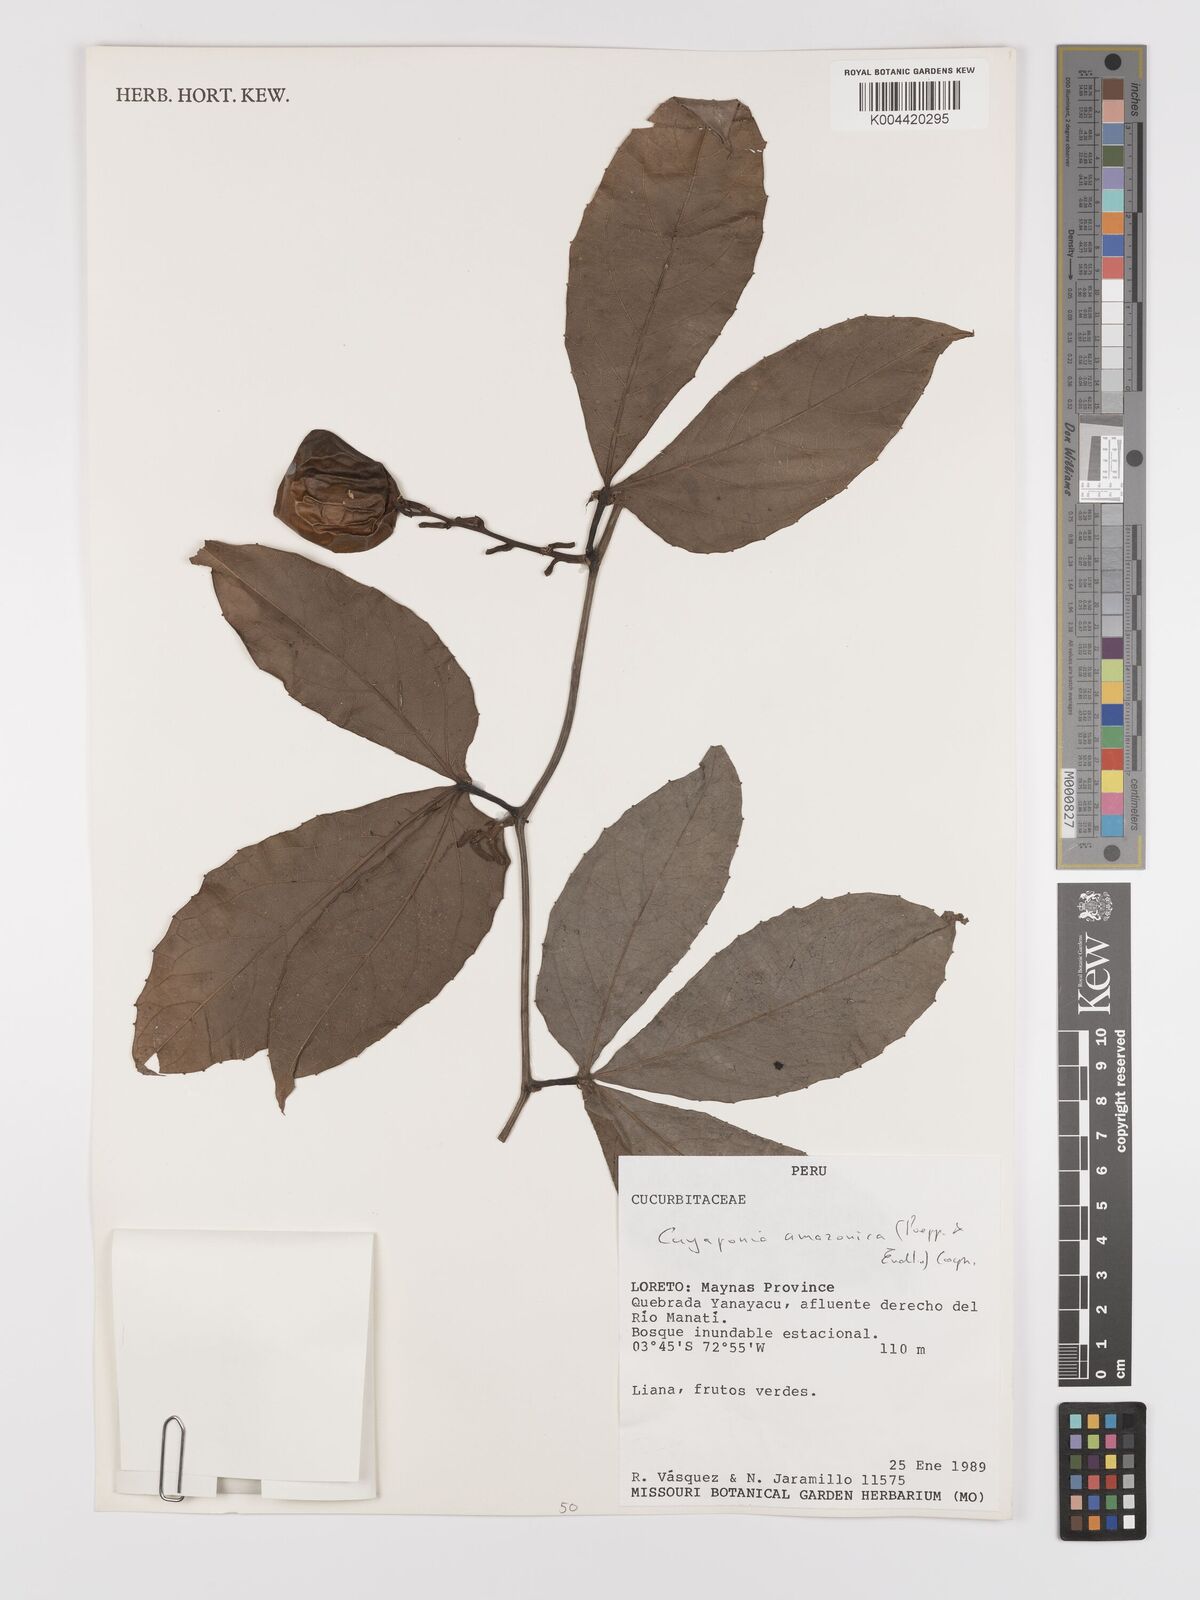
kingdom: Plantae
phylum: Tracheophyta
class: Magnoliopsida
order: Cucurbitales
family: Cucurbitaceae
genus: Cayaponia
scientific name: Cayaponia amazonica
